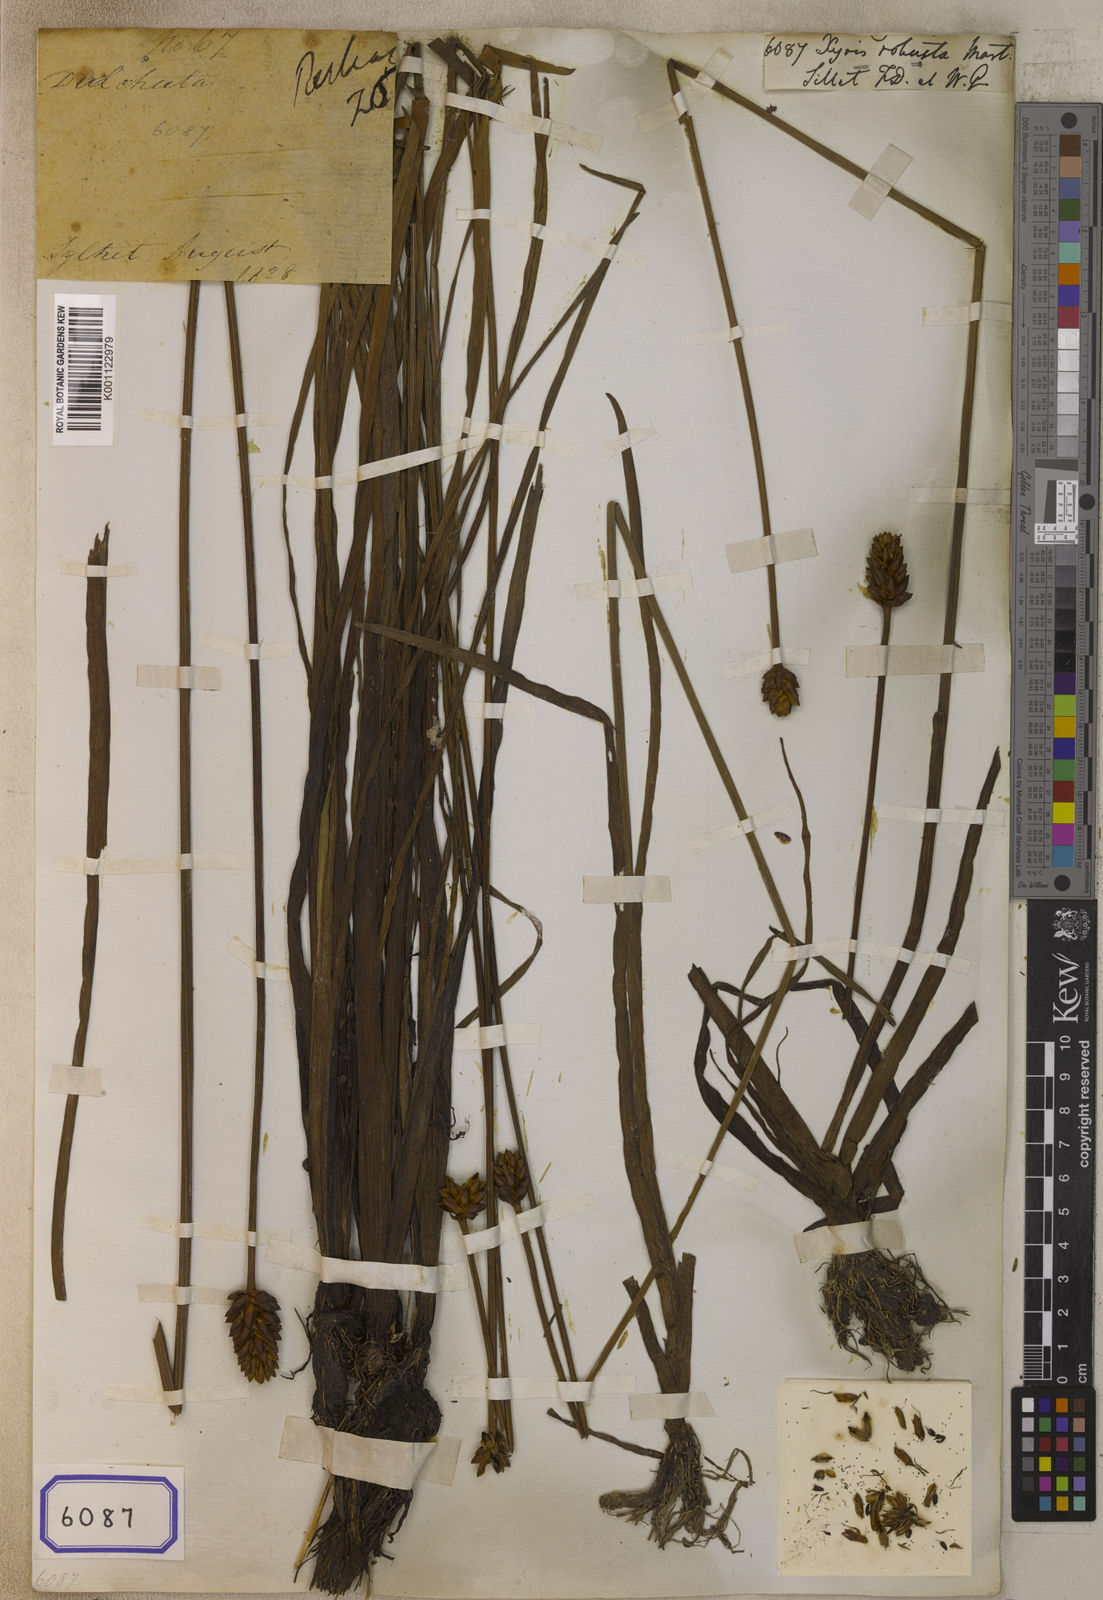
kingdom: Plantae
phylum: Tracheophyta
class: Liliopsida
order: Poales
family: Xyridaceae
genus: Xyris
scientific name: Xyris indica
